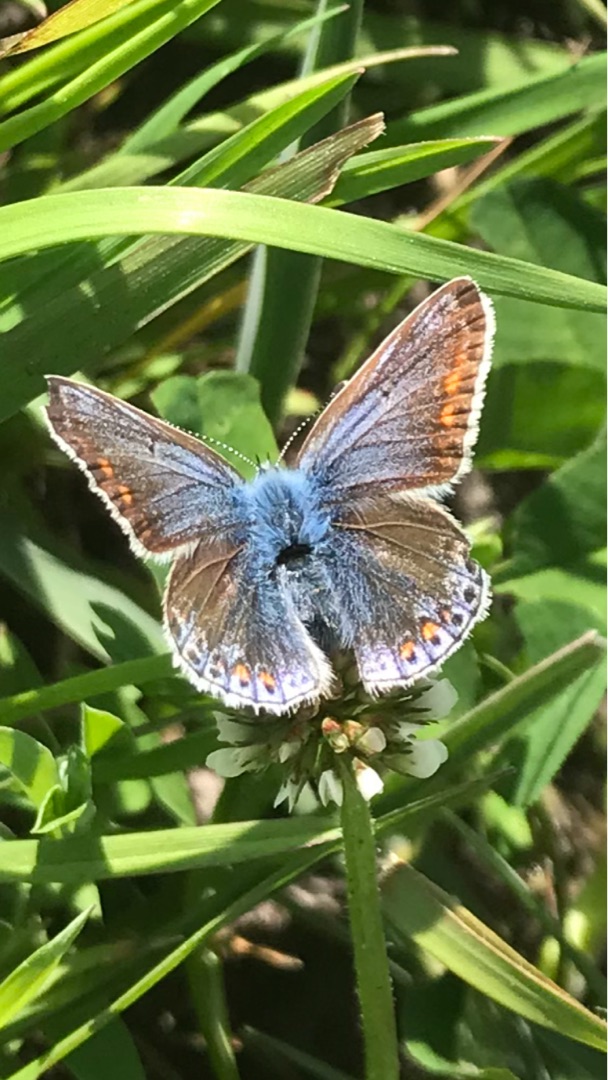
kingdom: Animalia
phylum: Arthropoda
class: Insecta
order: Lepidoptera
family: Lycaenidae
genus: Polyommatus
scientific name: Polyommatus icarus
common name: Almindelig blåfugl
